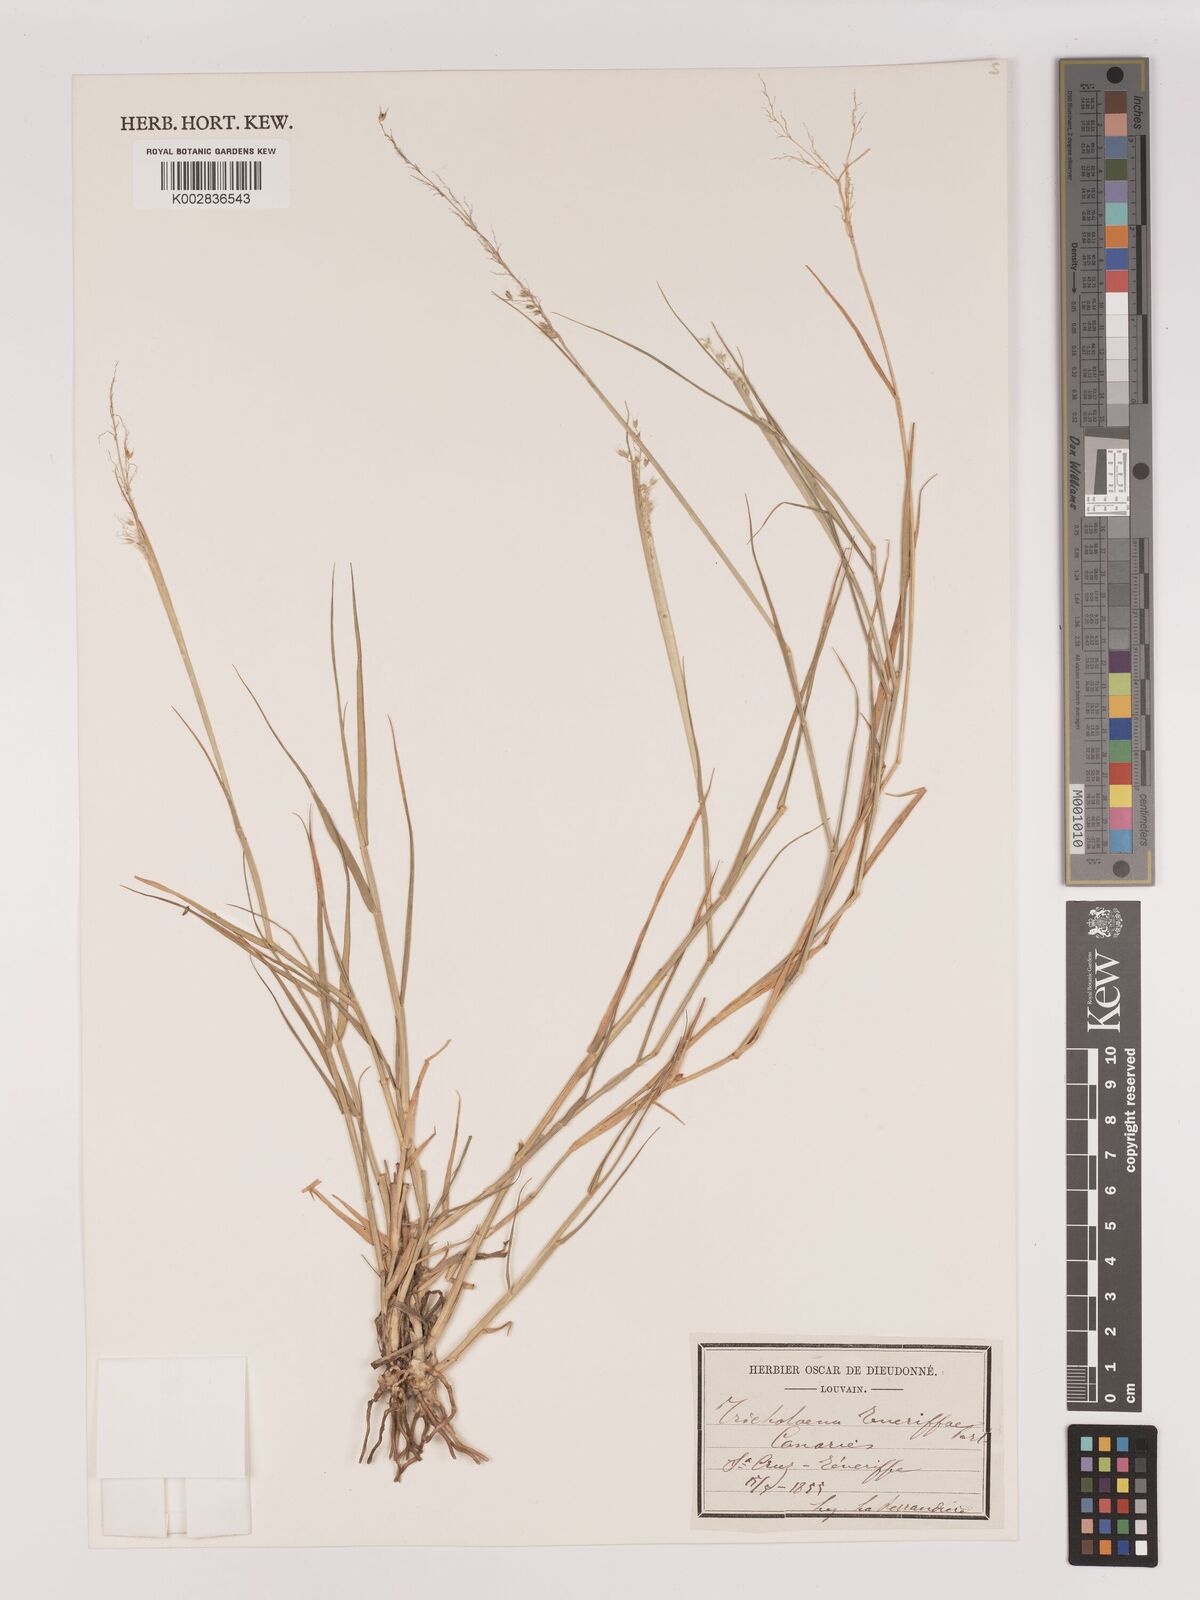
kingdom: Plantae
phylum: Tracheophyta
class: Liliopsida
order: Poales
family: Poaceae
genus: Tricholaena
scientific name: Tricholaena teneriffae
